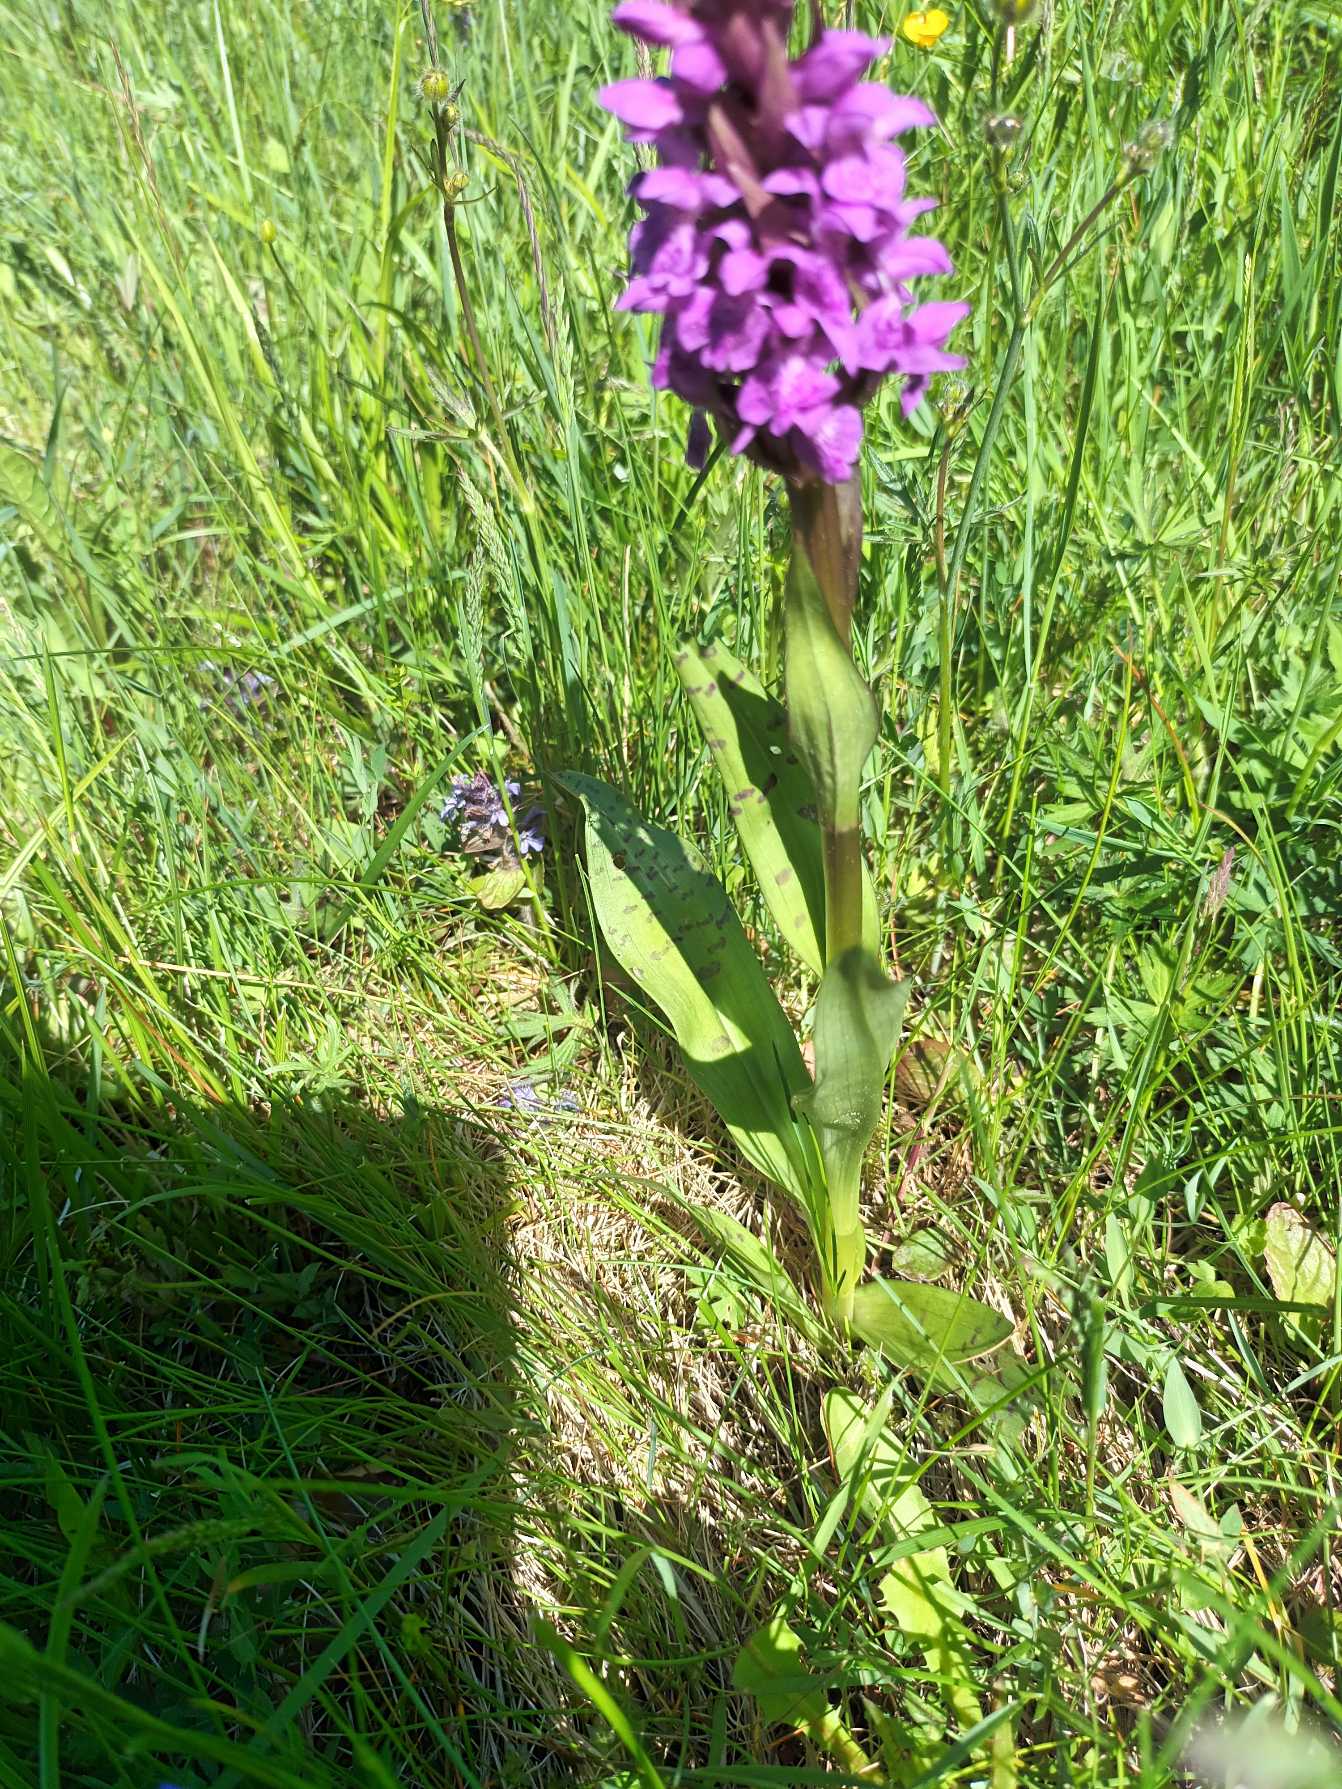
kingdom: Plantae
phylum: Tracheophyta
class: Liliopsida
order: Asparagales
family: Orchidaceae
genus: Dactylorhiza
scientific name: Dactylorhiza majalis
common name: Maj-gøgeurt
